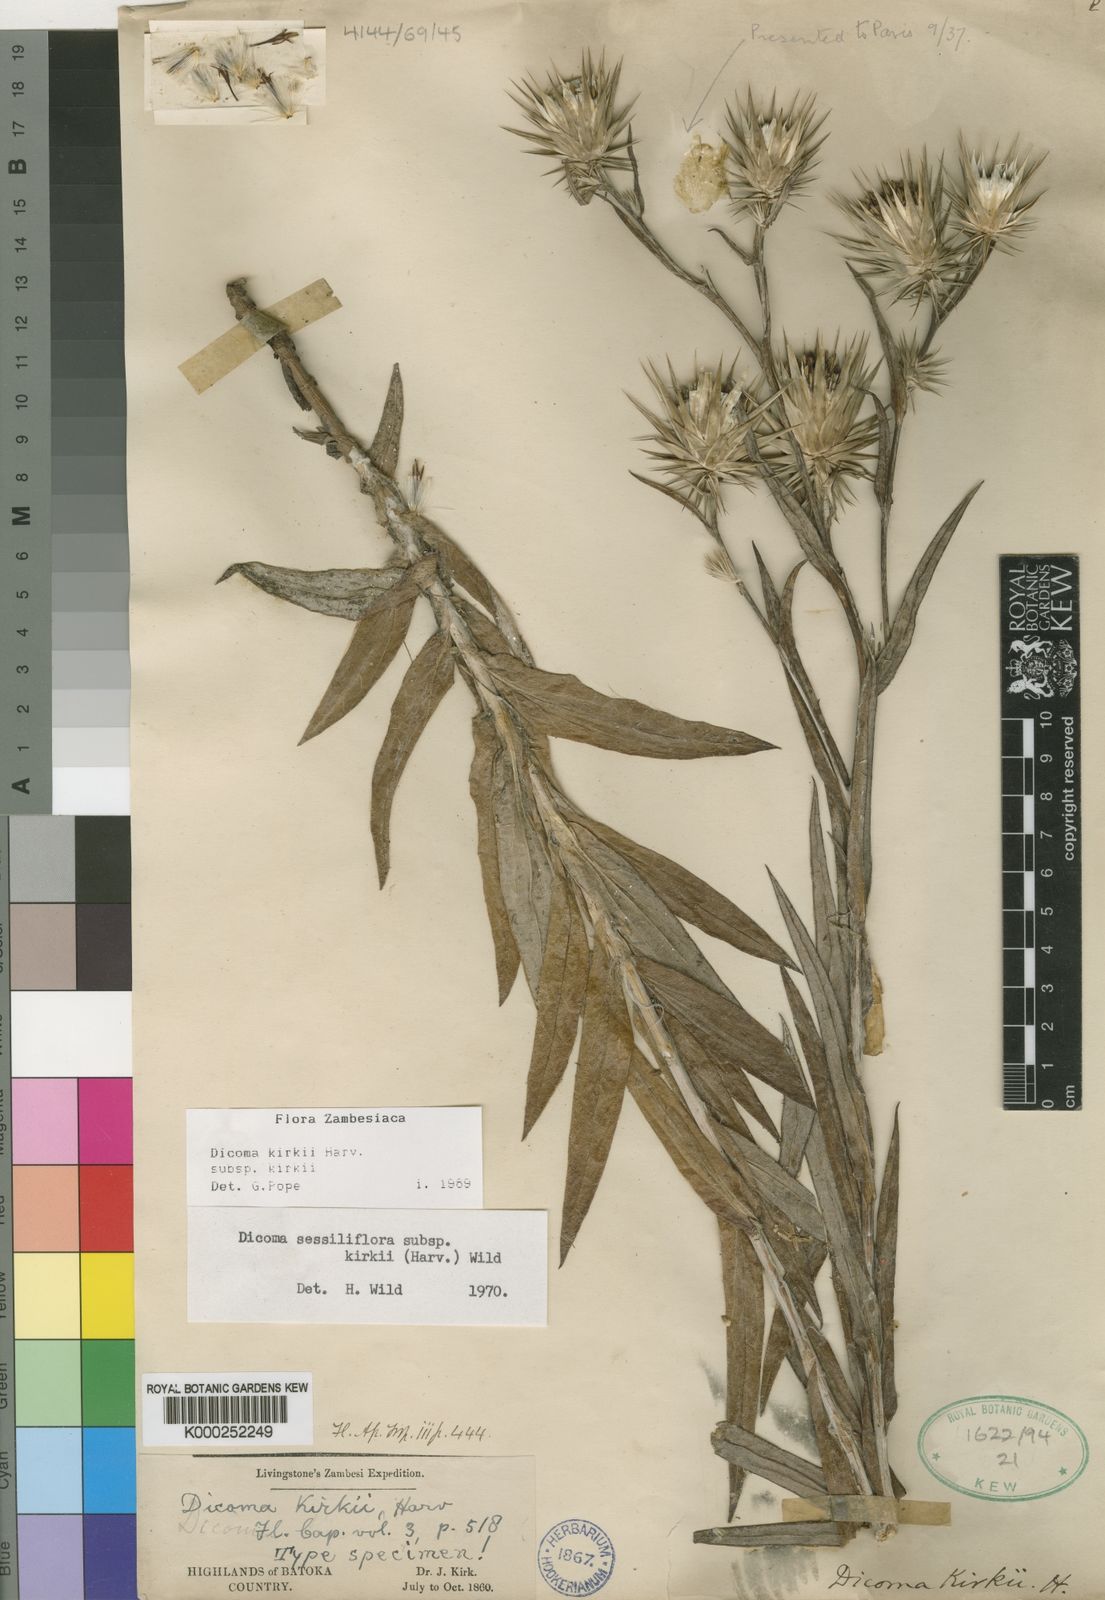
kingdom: Plantae
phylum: Tracheophyta
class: Magnoliopsida
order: Asterales
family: Asteraceae
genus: Macledium
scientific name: Macledium kirkii
